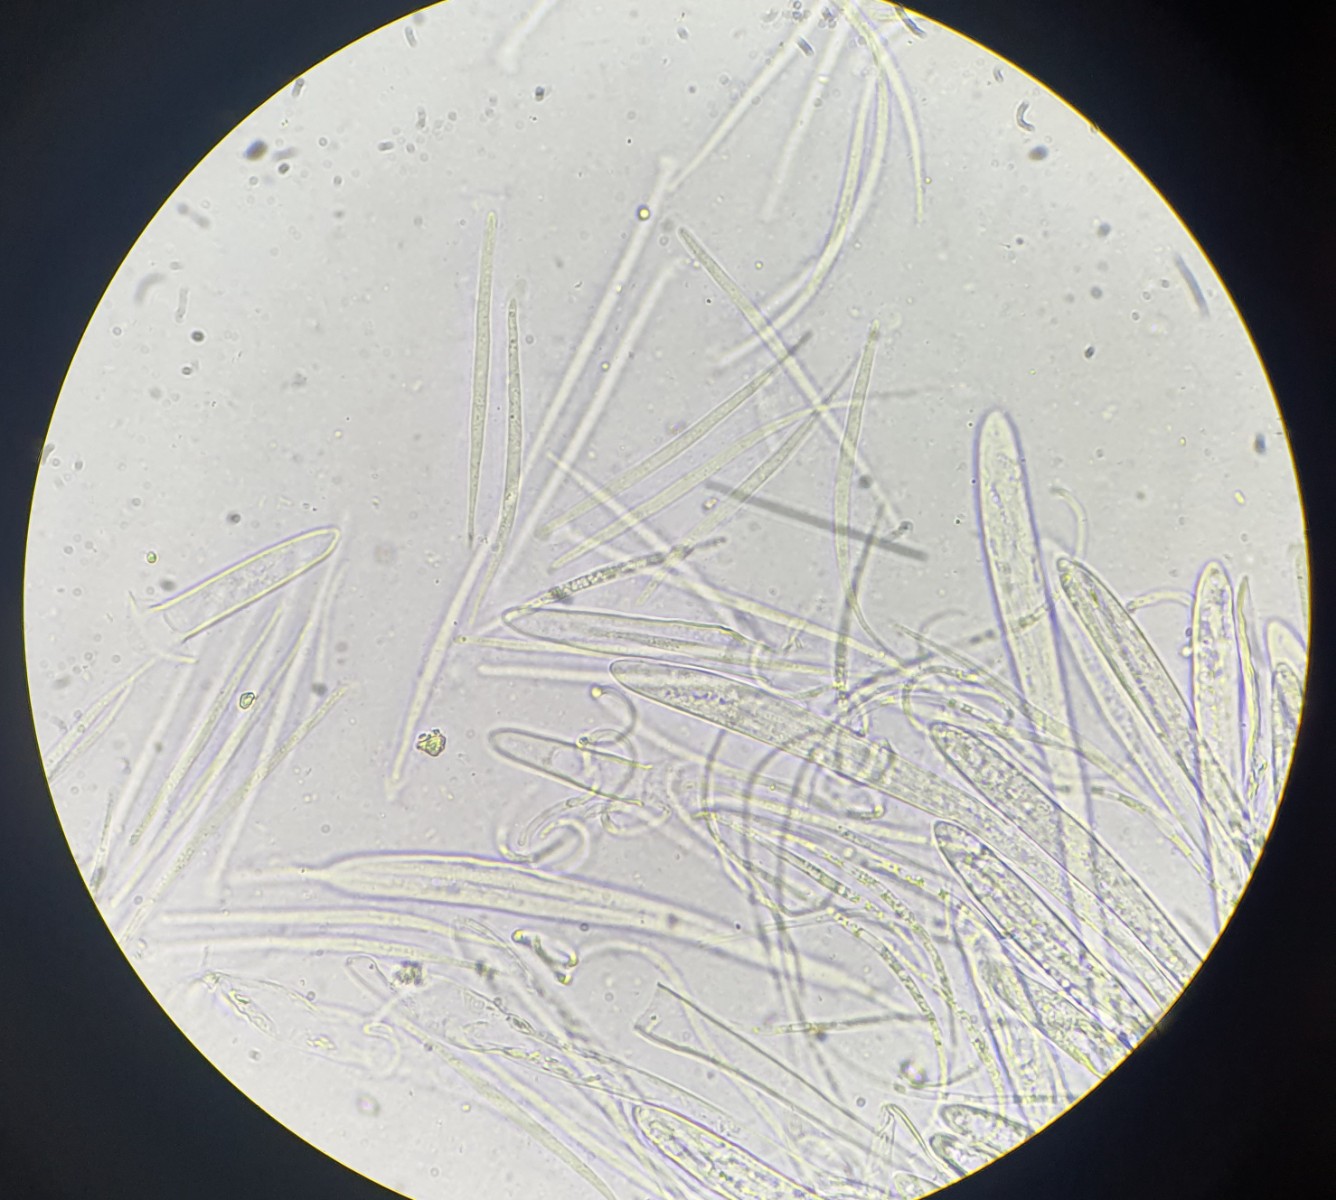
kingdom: Fungi
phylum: Ascomycota
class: Leotiomycetes
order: Rhytismatales
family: Rhytismataceae
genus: Colpoma
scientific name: Colpoma quercinum
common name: ege-sprækkeskive
